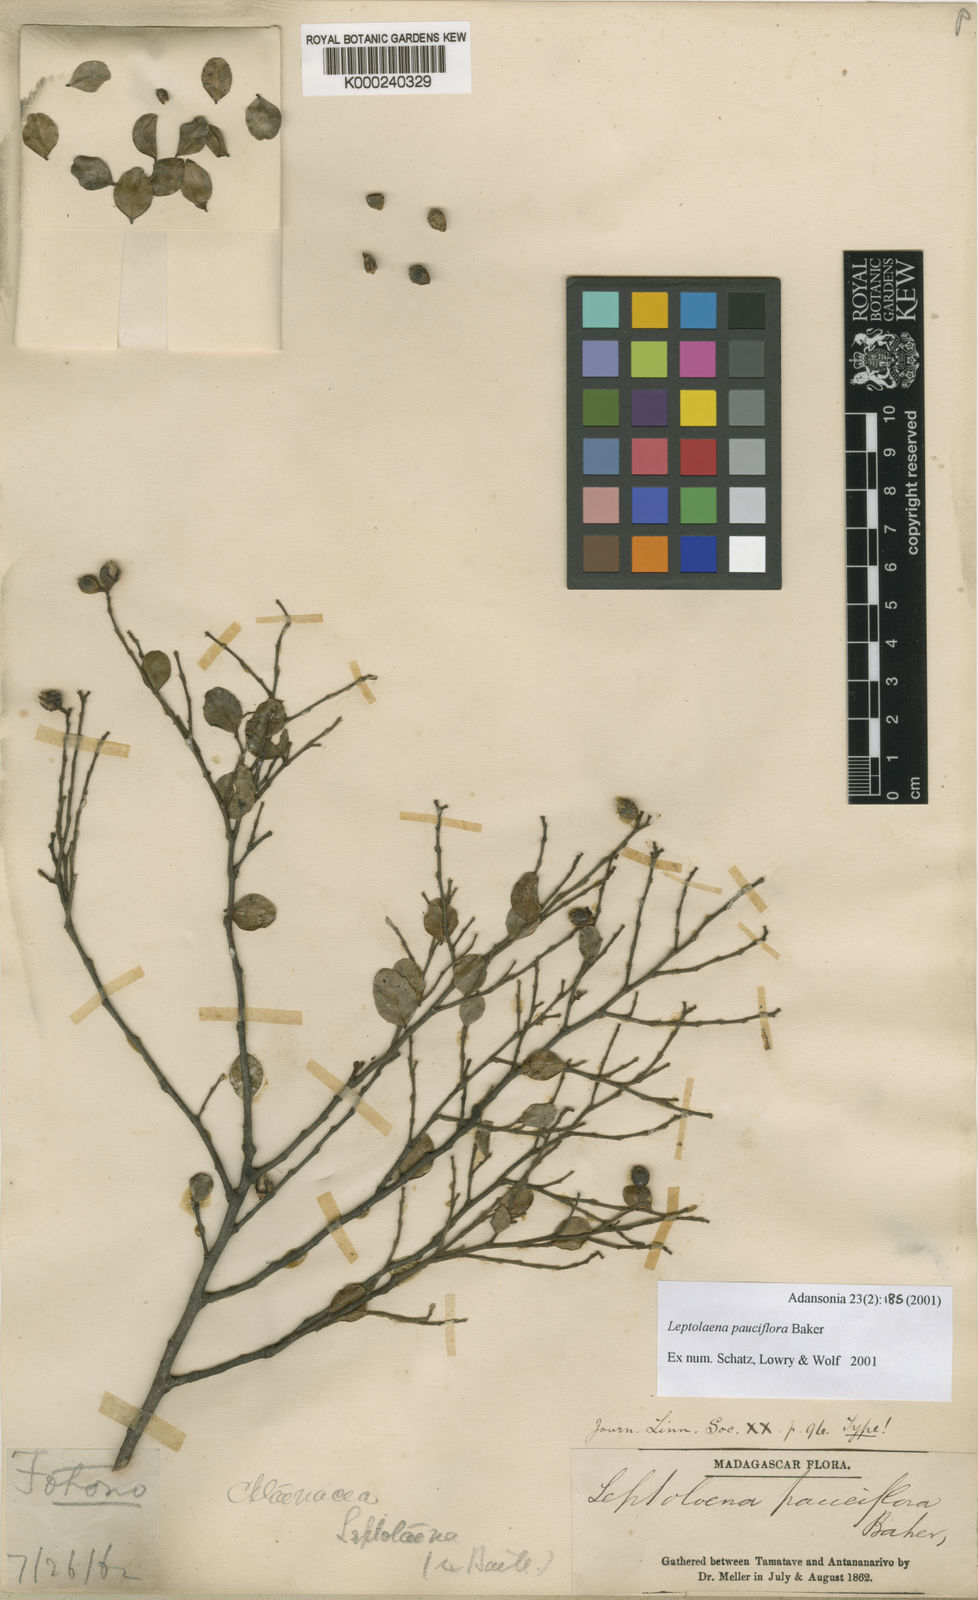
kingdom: Plantae
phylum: Tracheophyta
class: Magnoliopsida
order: Malvales
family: Sarcolaenaceae
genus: Leptolaena
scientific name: Leptolaena pauciflora
